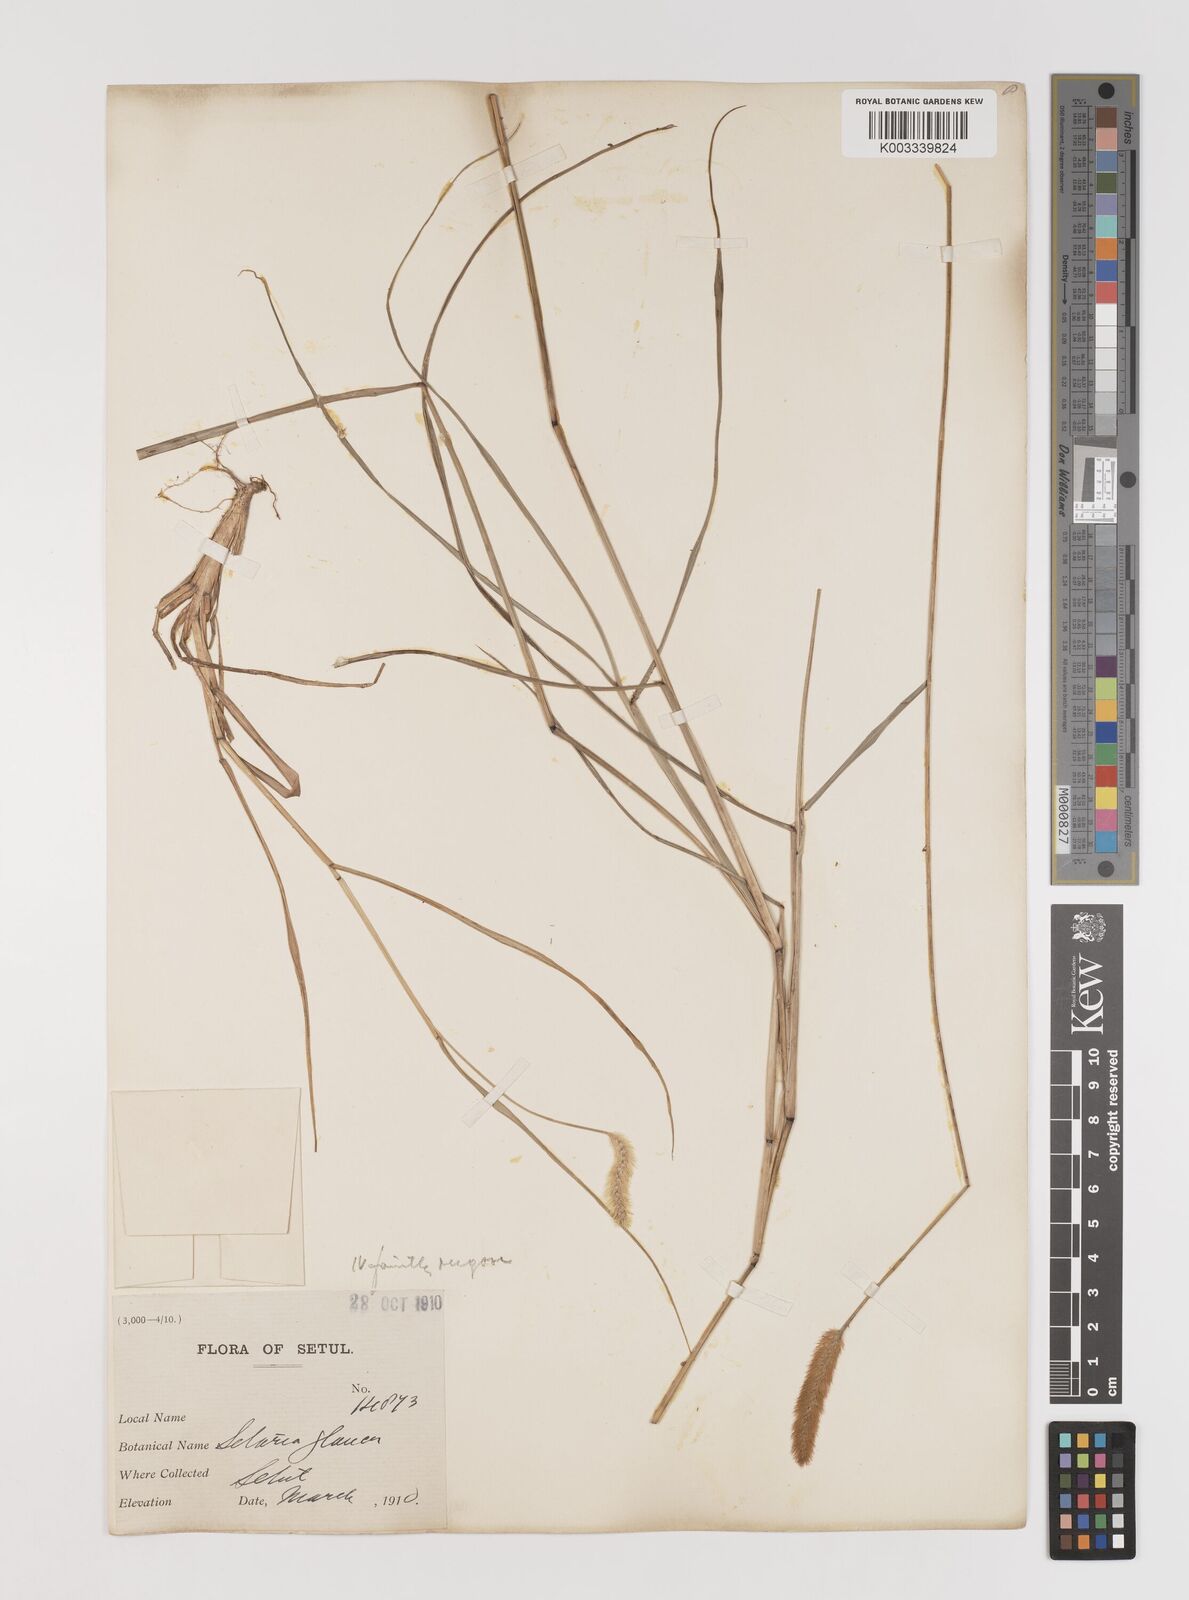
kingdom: Plantae
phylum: Tracheophyta
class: Liliopsida
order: Poales
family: Poaceae
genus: Setaria
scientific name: Setaria pumila
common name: Yellow bristle-grass
